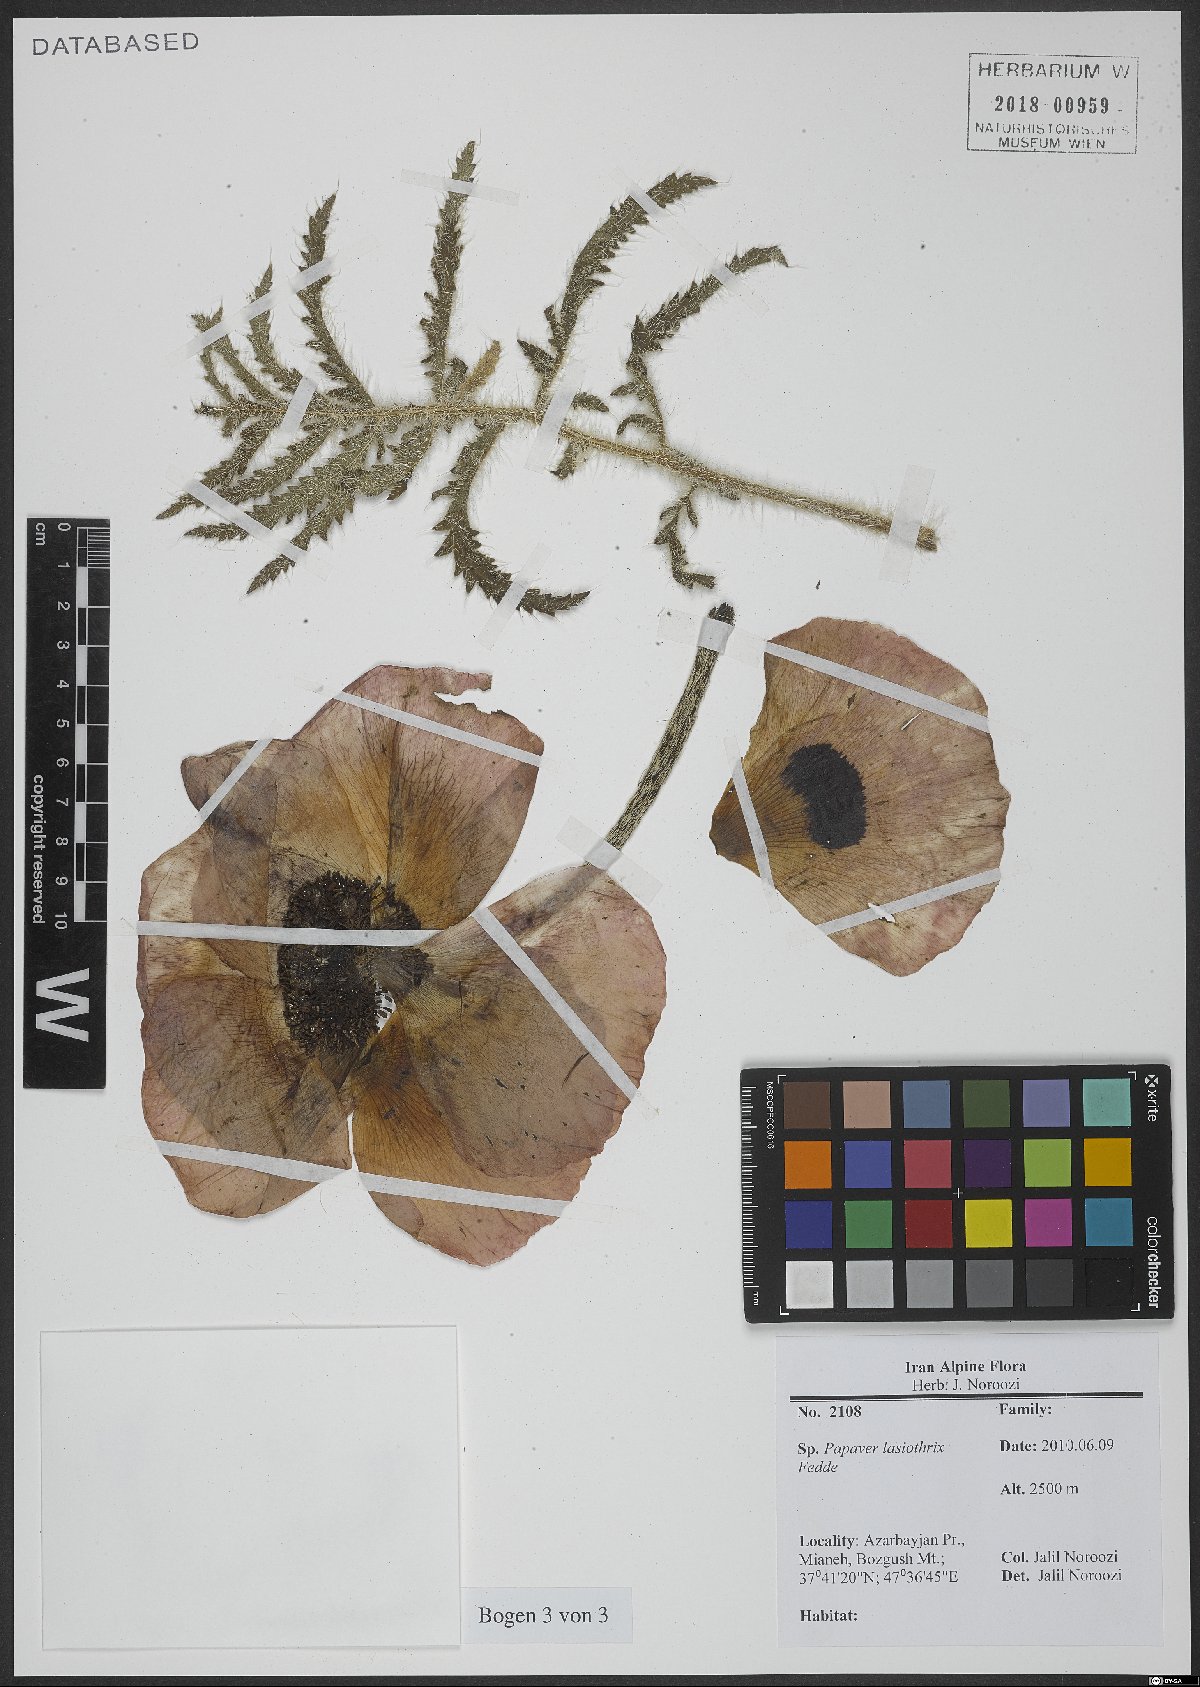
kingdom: Plantae
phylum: Tracheophyta
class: Magnoliopsida
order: Ranunculales
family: Papaveraceae
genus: Papaver
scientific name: Papaver setiferum
